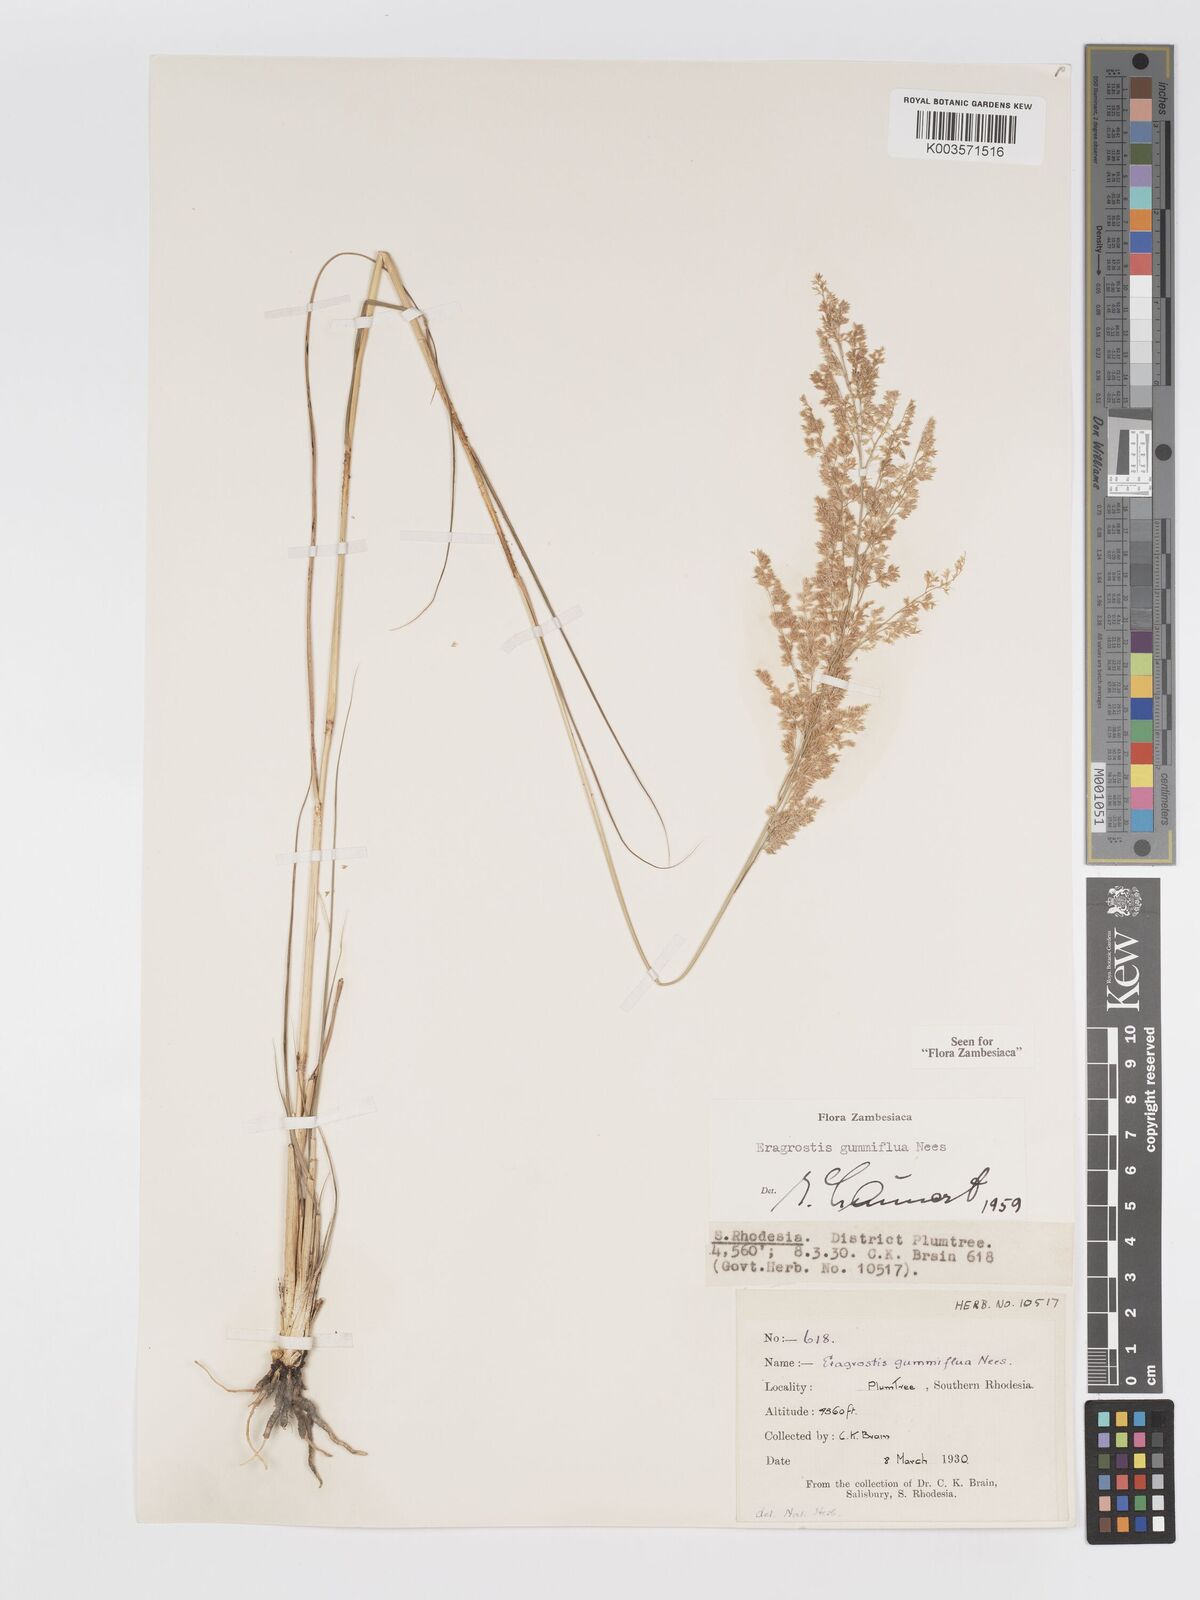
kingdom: Plantae
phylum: Tracheophyta
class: Liliopsida
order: Poales
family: Poaceae
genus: Eragrostis
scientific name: Eragrostis gummiflua
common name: Gum grass
